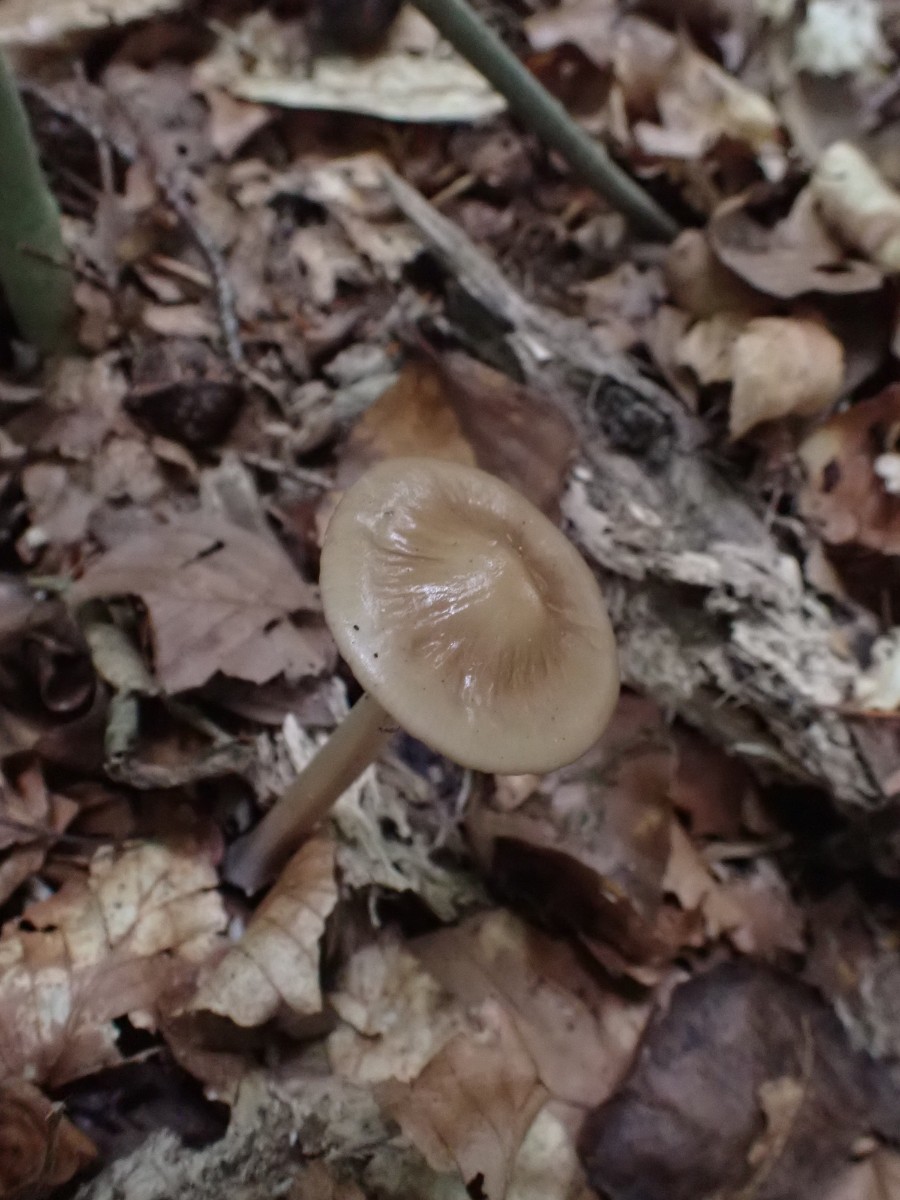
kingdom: Fungi
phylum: Basidiomycota
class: Agaricomycetes
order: Agaricales
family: Physalacriaceae
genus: Hymenopellis
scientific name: Hymenopellis radicata
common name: almindelig pælerodshat
